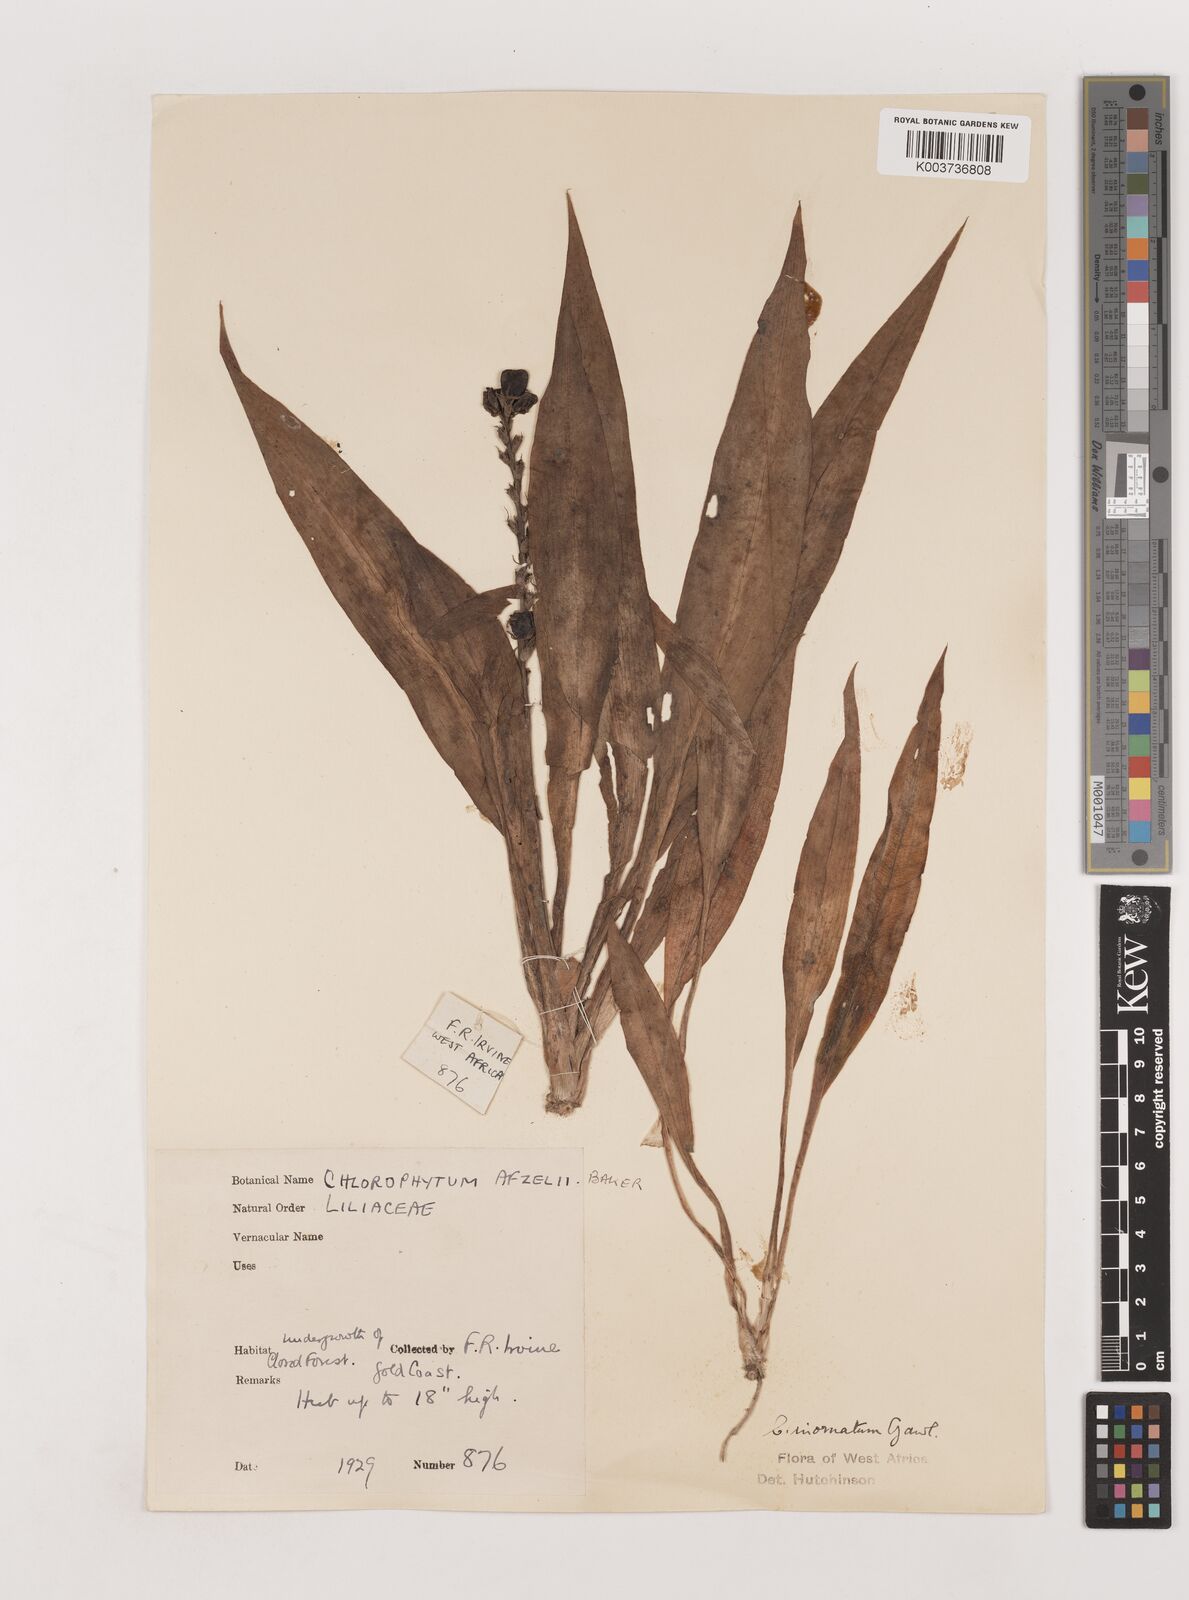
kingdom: Plantae
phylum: Tracheophyta
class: Liliopsida
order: Asparagales
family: Asparagaceae
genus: Chlorophytum
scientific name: Chlorophytum inornatum
